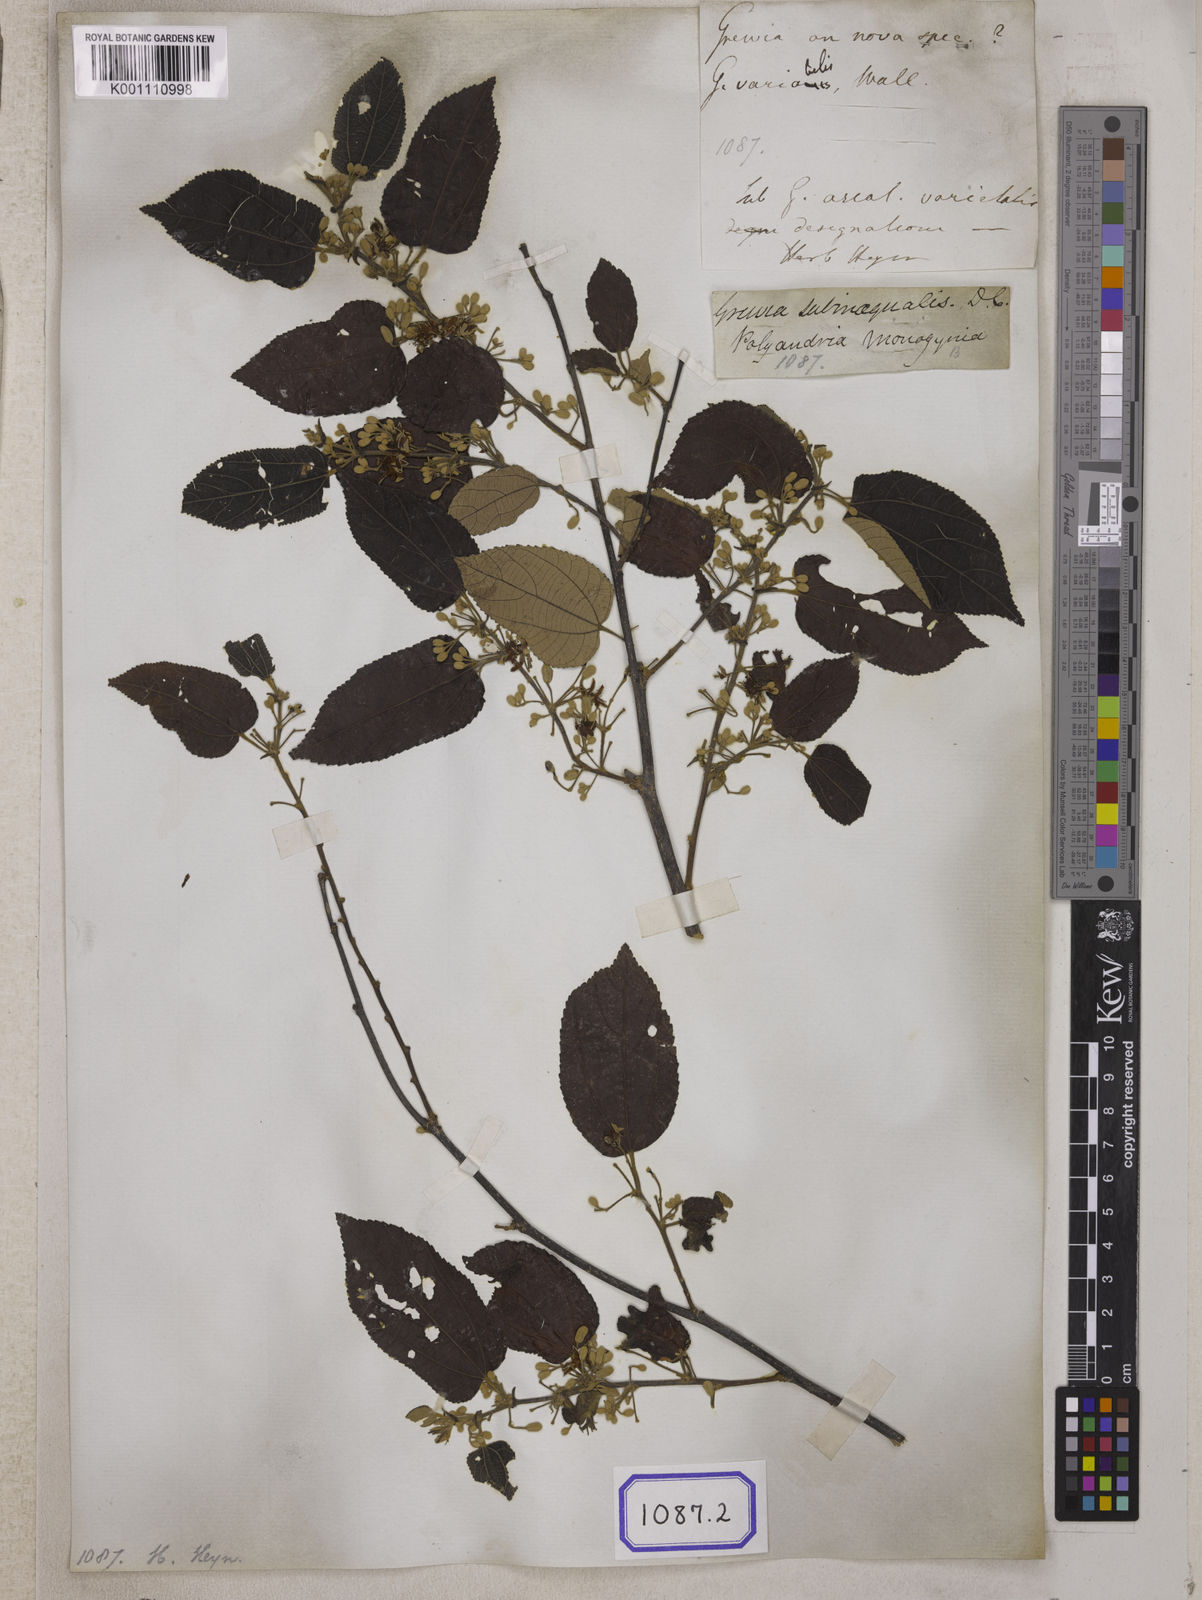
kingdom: Plantae
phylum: Tracheophyta
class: Magnoliopsida
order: Malvales
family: Malvaceae
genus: Grewia
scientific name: Grewia
